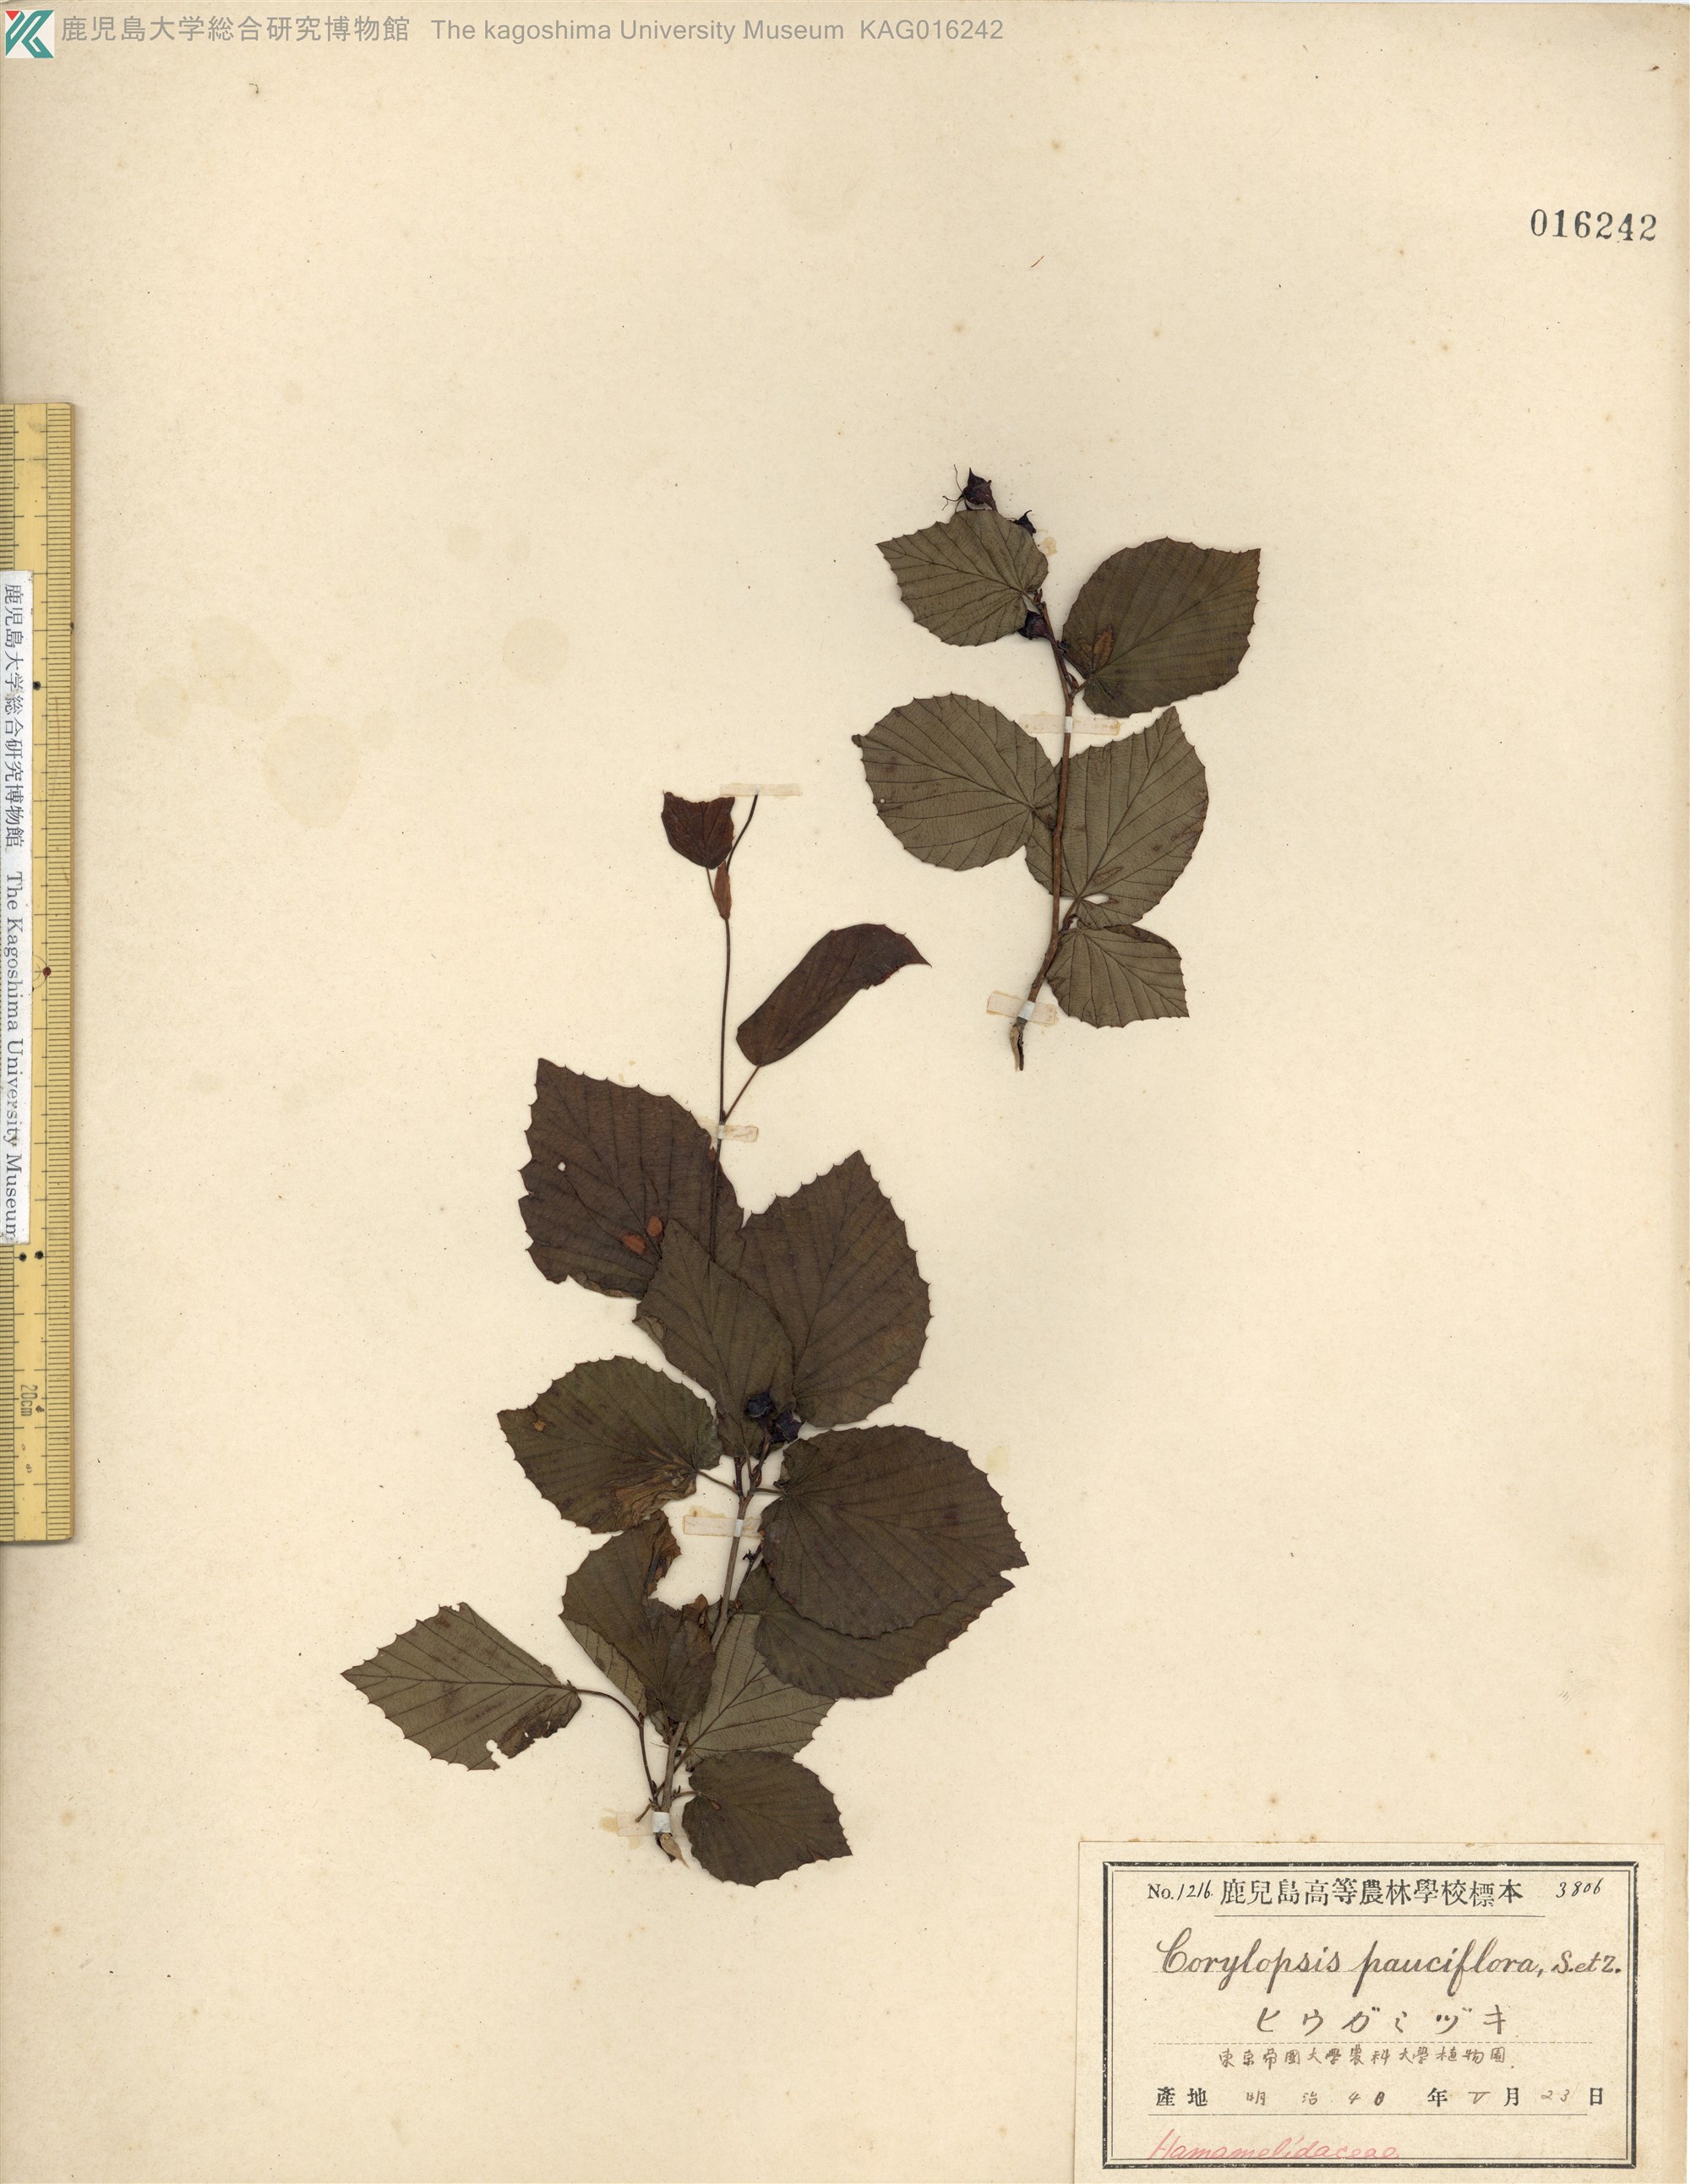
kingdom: Plantae
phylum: Tracheophyta
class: Magnoliopsida
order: Saxifragales
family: Hamamelidaceae
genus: Corylopsis
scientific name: Corylopsis pauciflora
